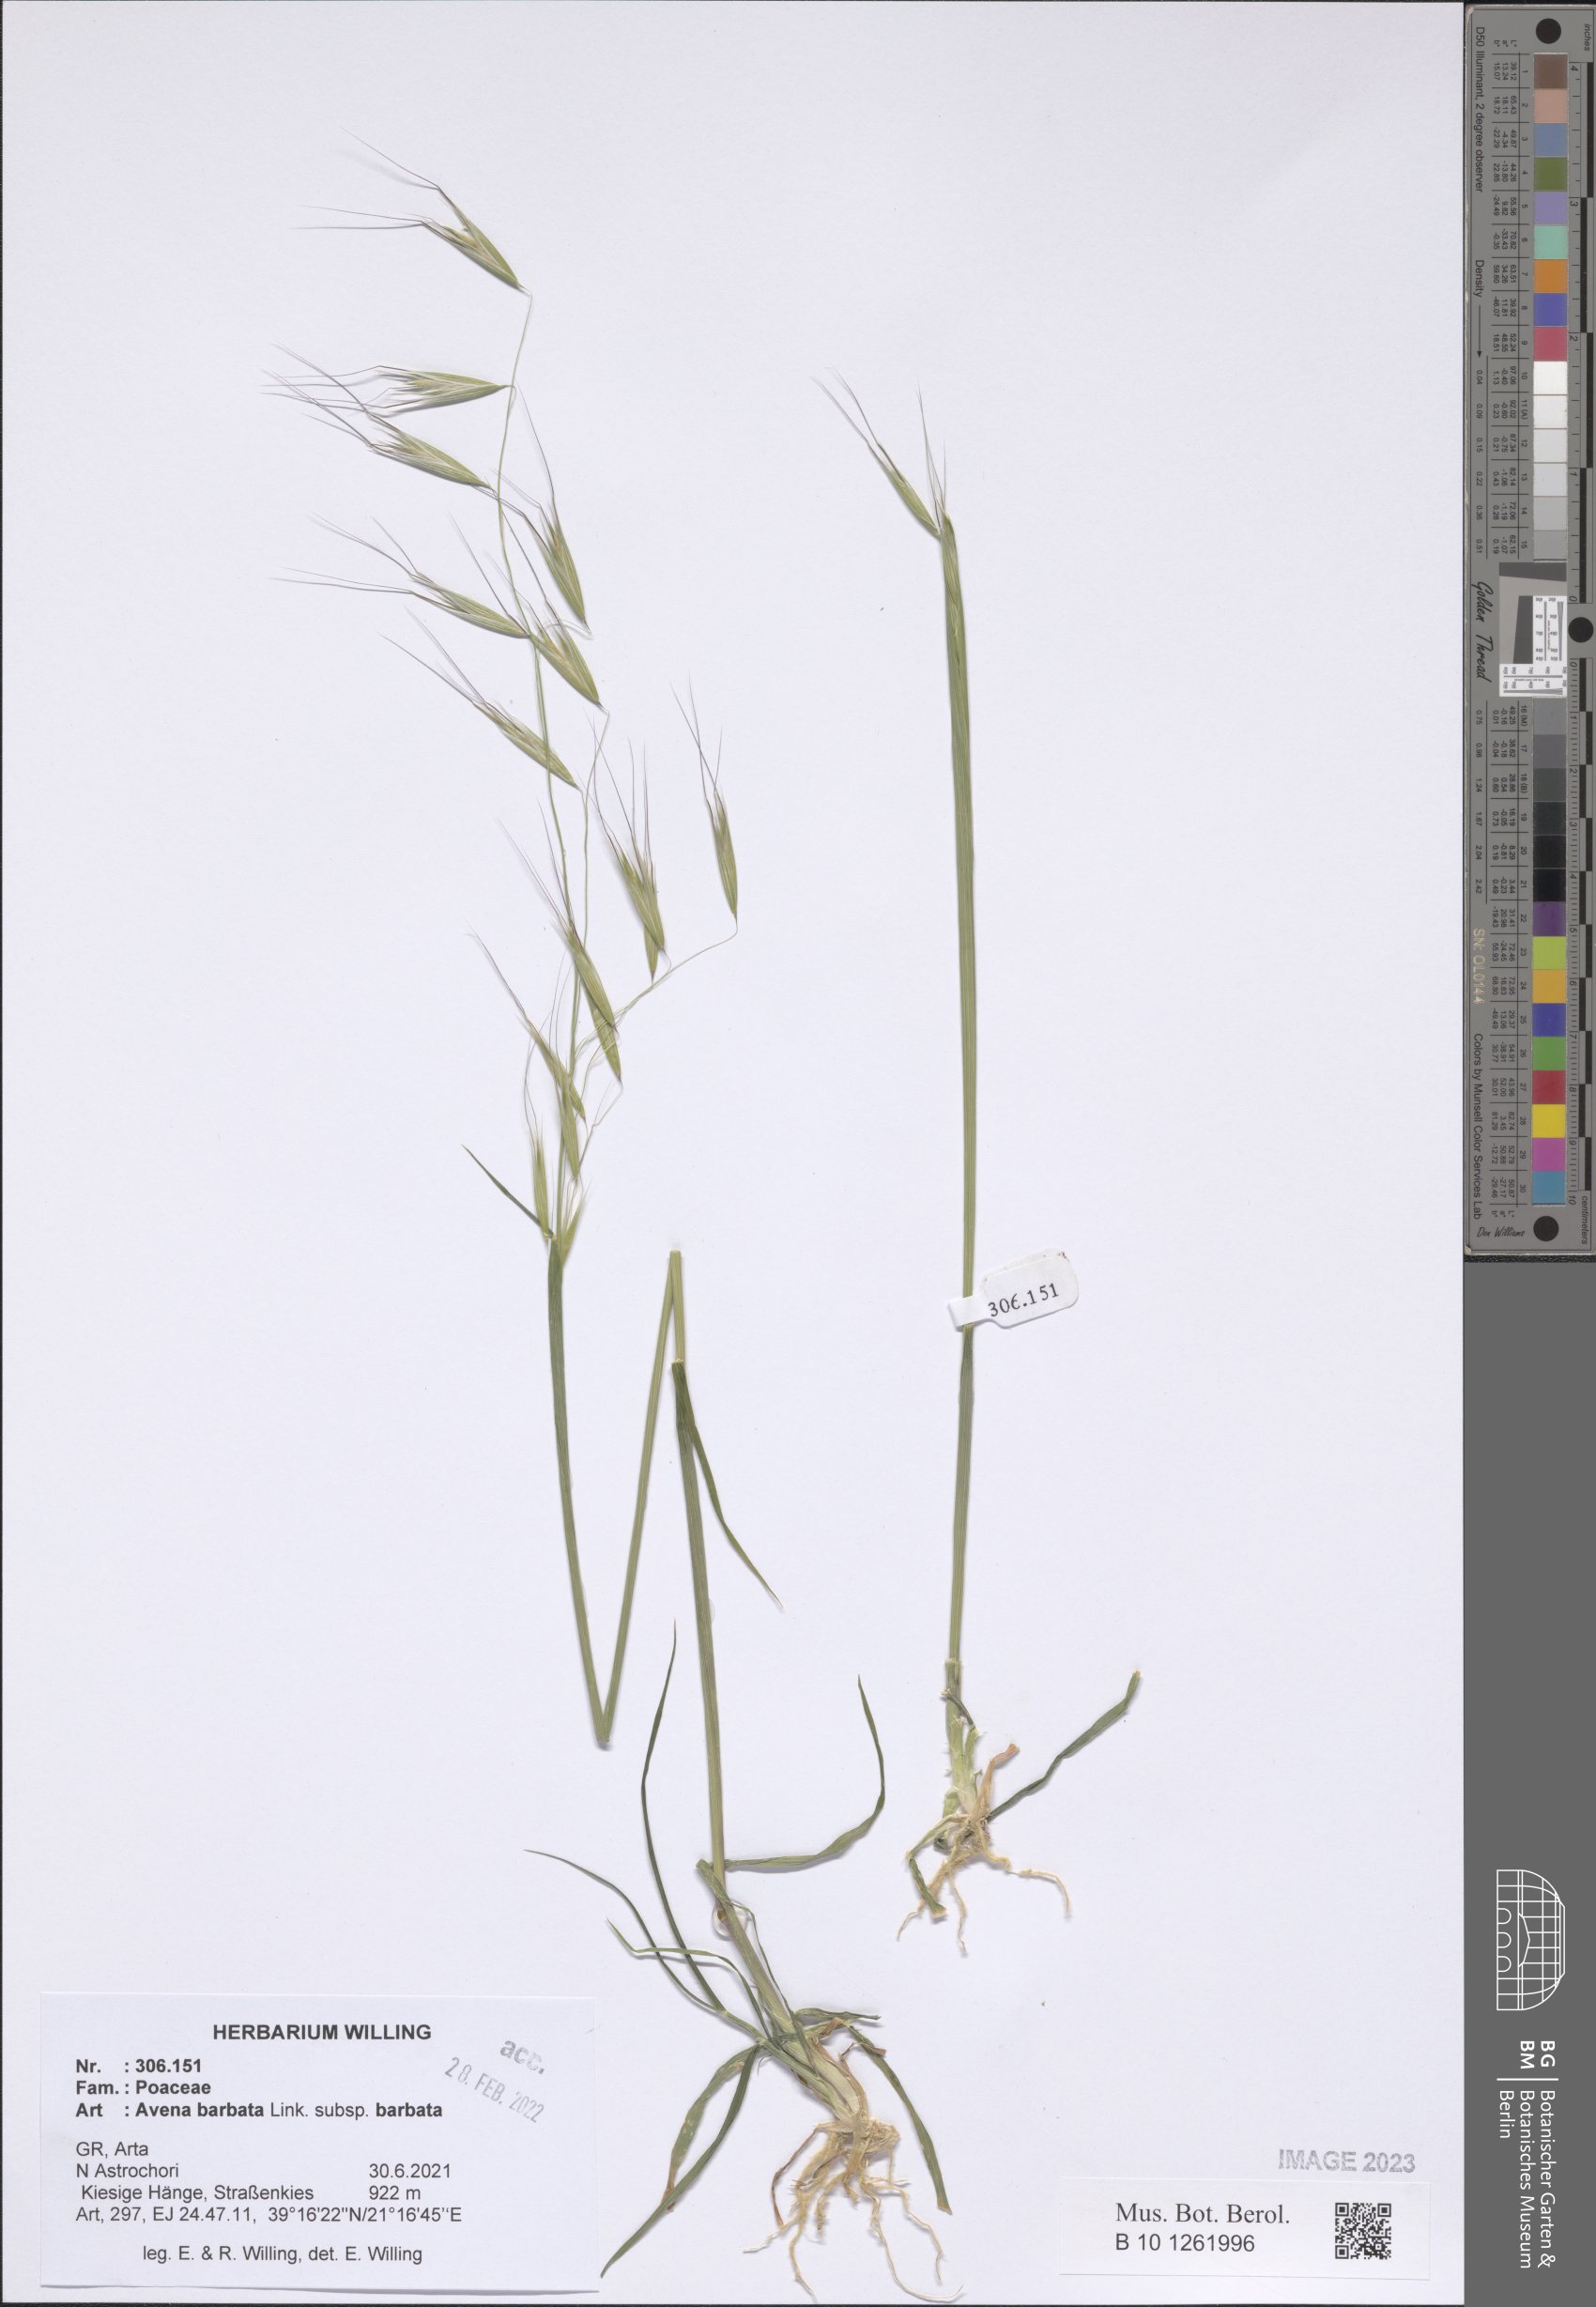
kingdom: Plantae
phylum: Tracheophyta
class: Liliopsida
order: Poales
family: Poaceae
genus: Avena
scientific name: Avena barbata
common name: Slender oat
